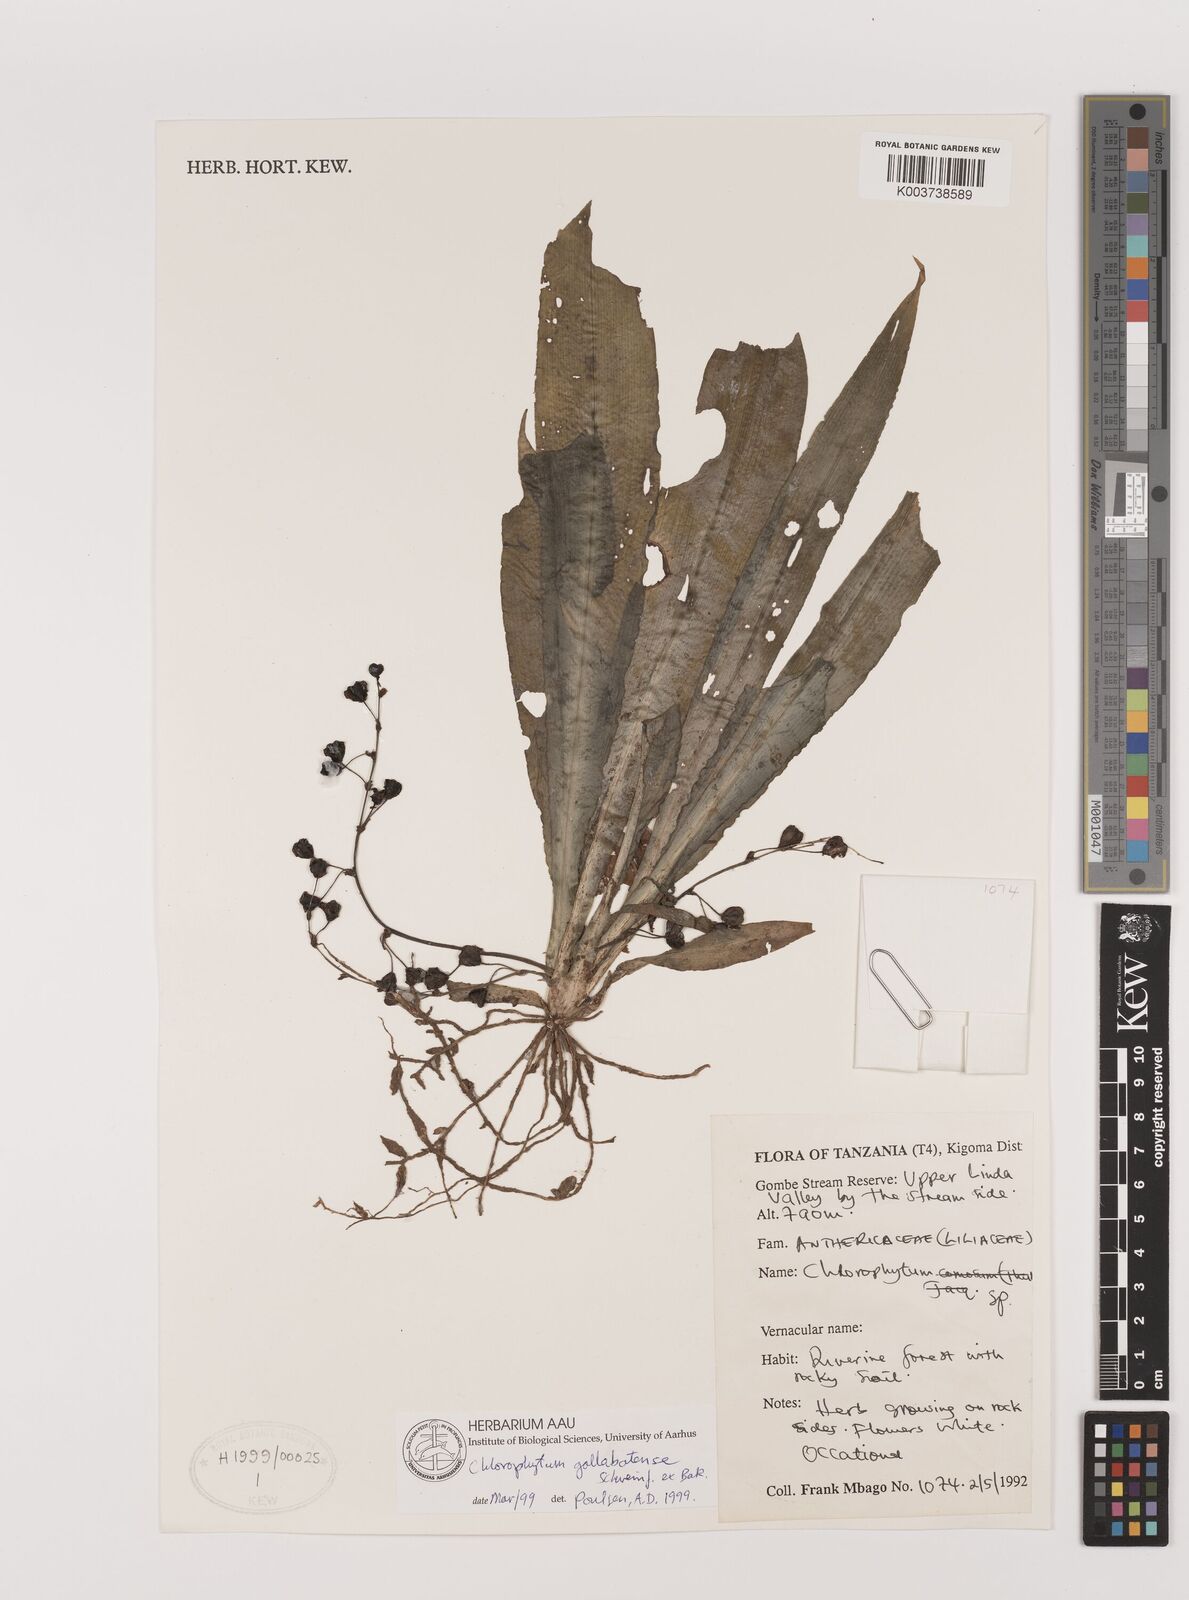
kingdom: Plantae
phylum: Tracheophyta
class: Liliopsida
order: Asparagales
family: Asparagaceae
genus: Chlorophytum
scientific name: Chlorophytum gallabatense
